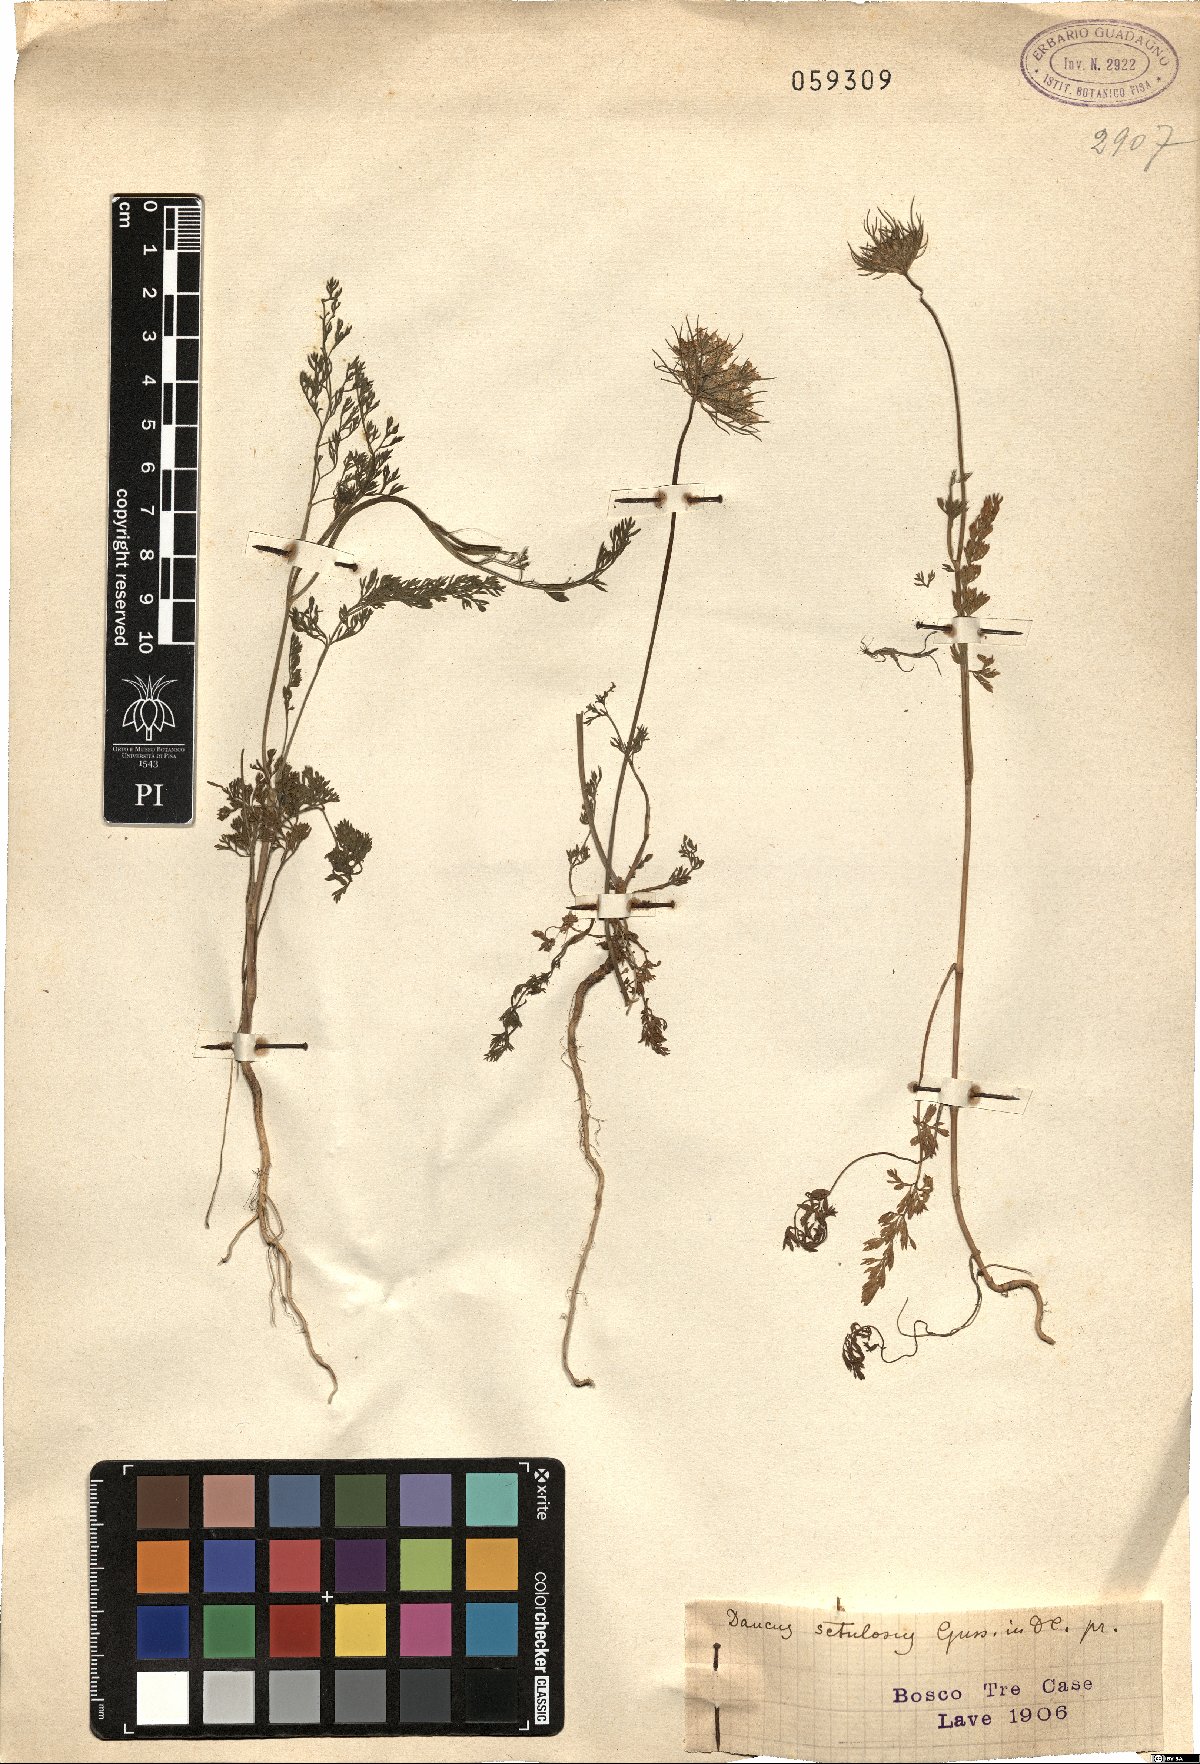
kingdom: Plantae
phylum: Tracheophyta
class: Magnoliopsida
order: Apiales
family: Apiaceae
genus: Daucus
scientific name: Daucus guttatus
